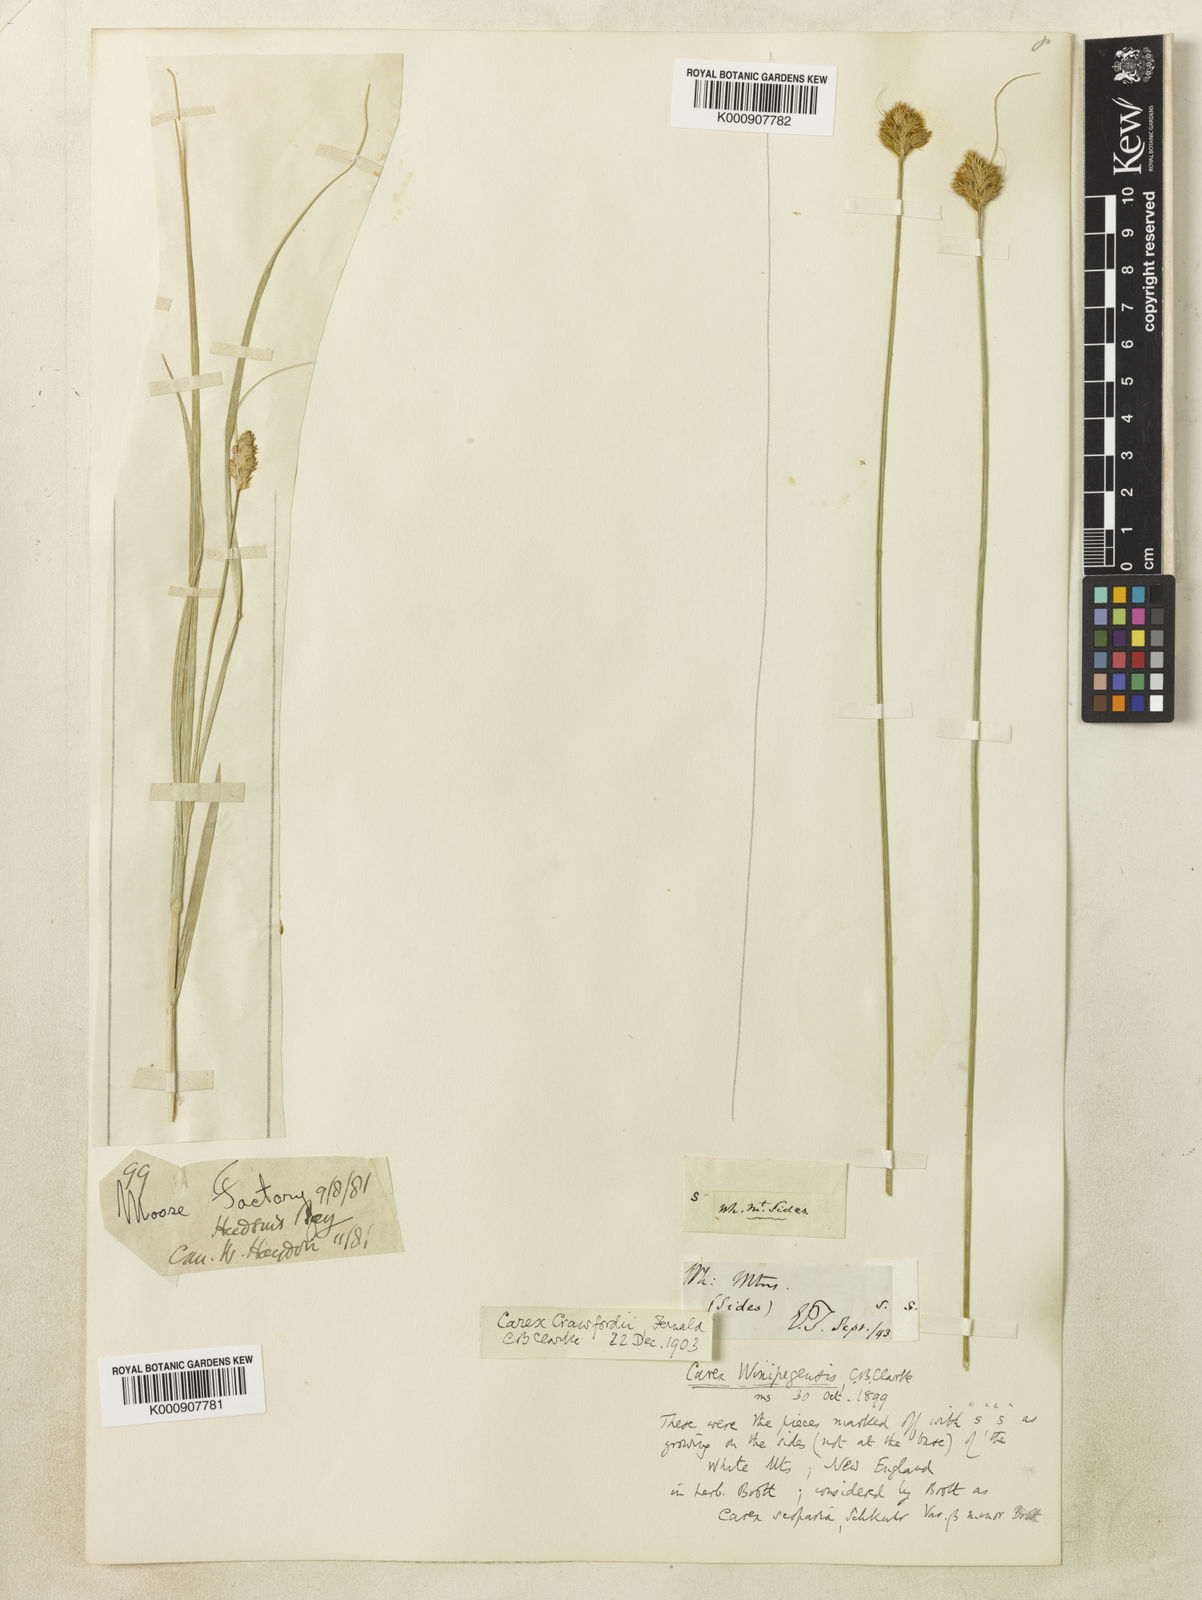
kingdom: Plantae
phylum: Tracheophyta
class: Liliopsida
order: Poales
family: Cyperaceae
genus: Carex
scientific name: Carex crawfordii
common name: Crawford's sedge
